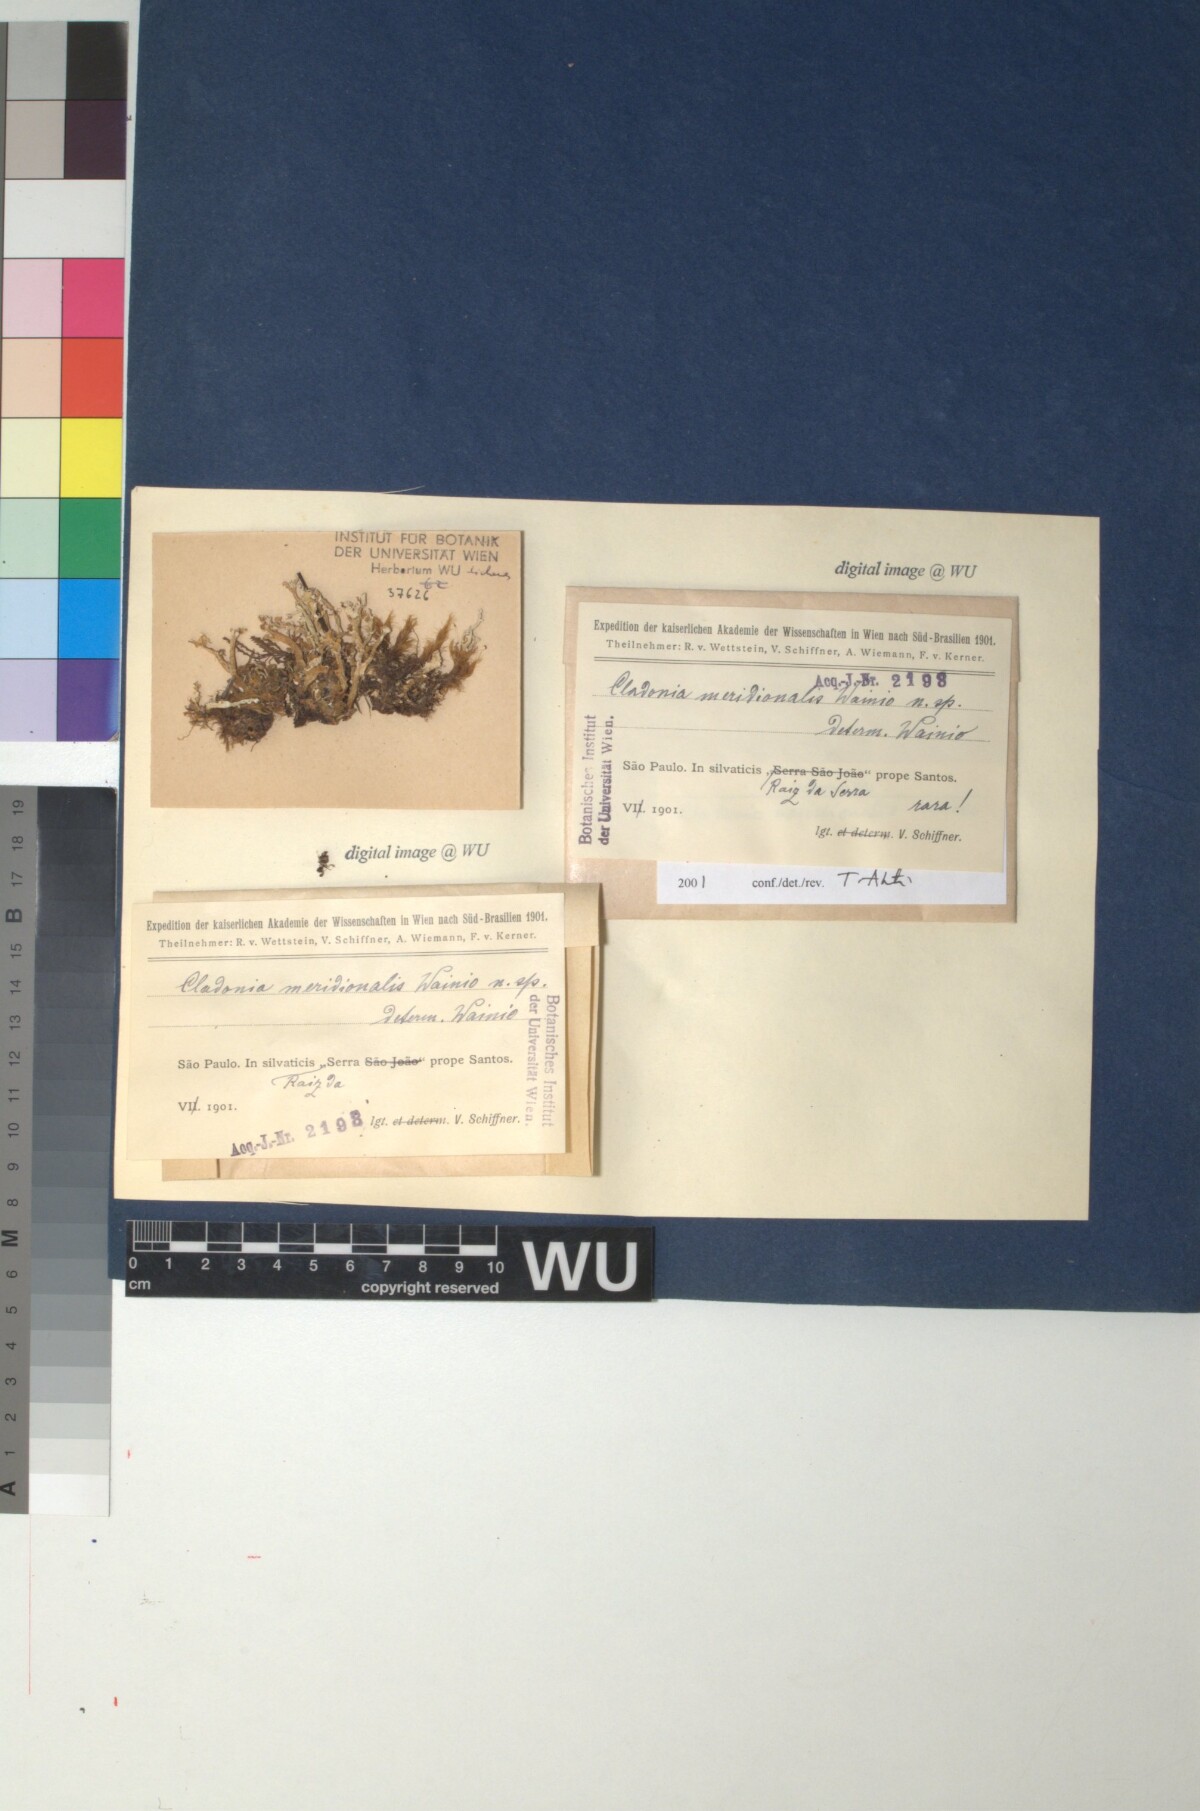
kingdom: Fungi
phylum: Ascomycota
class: Lecanoromycetes
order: Lecanorales
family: Cladoniaceae
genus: Cladonia
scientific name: Cladonia meridionalis
